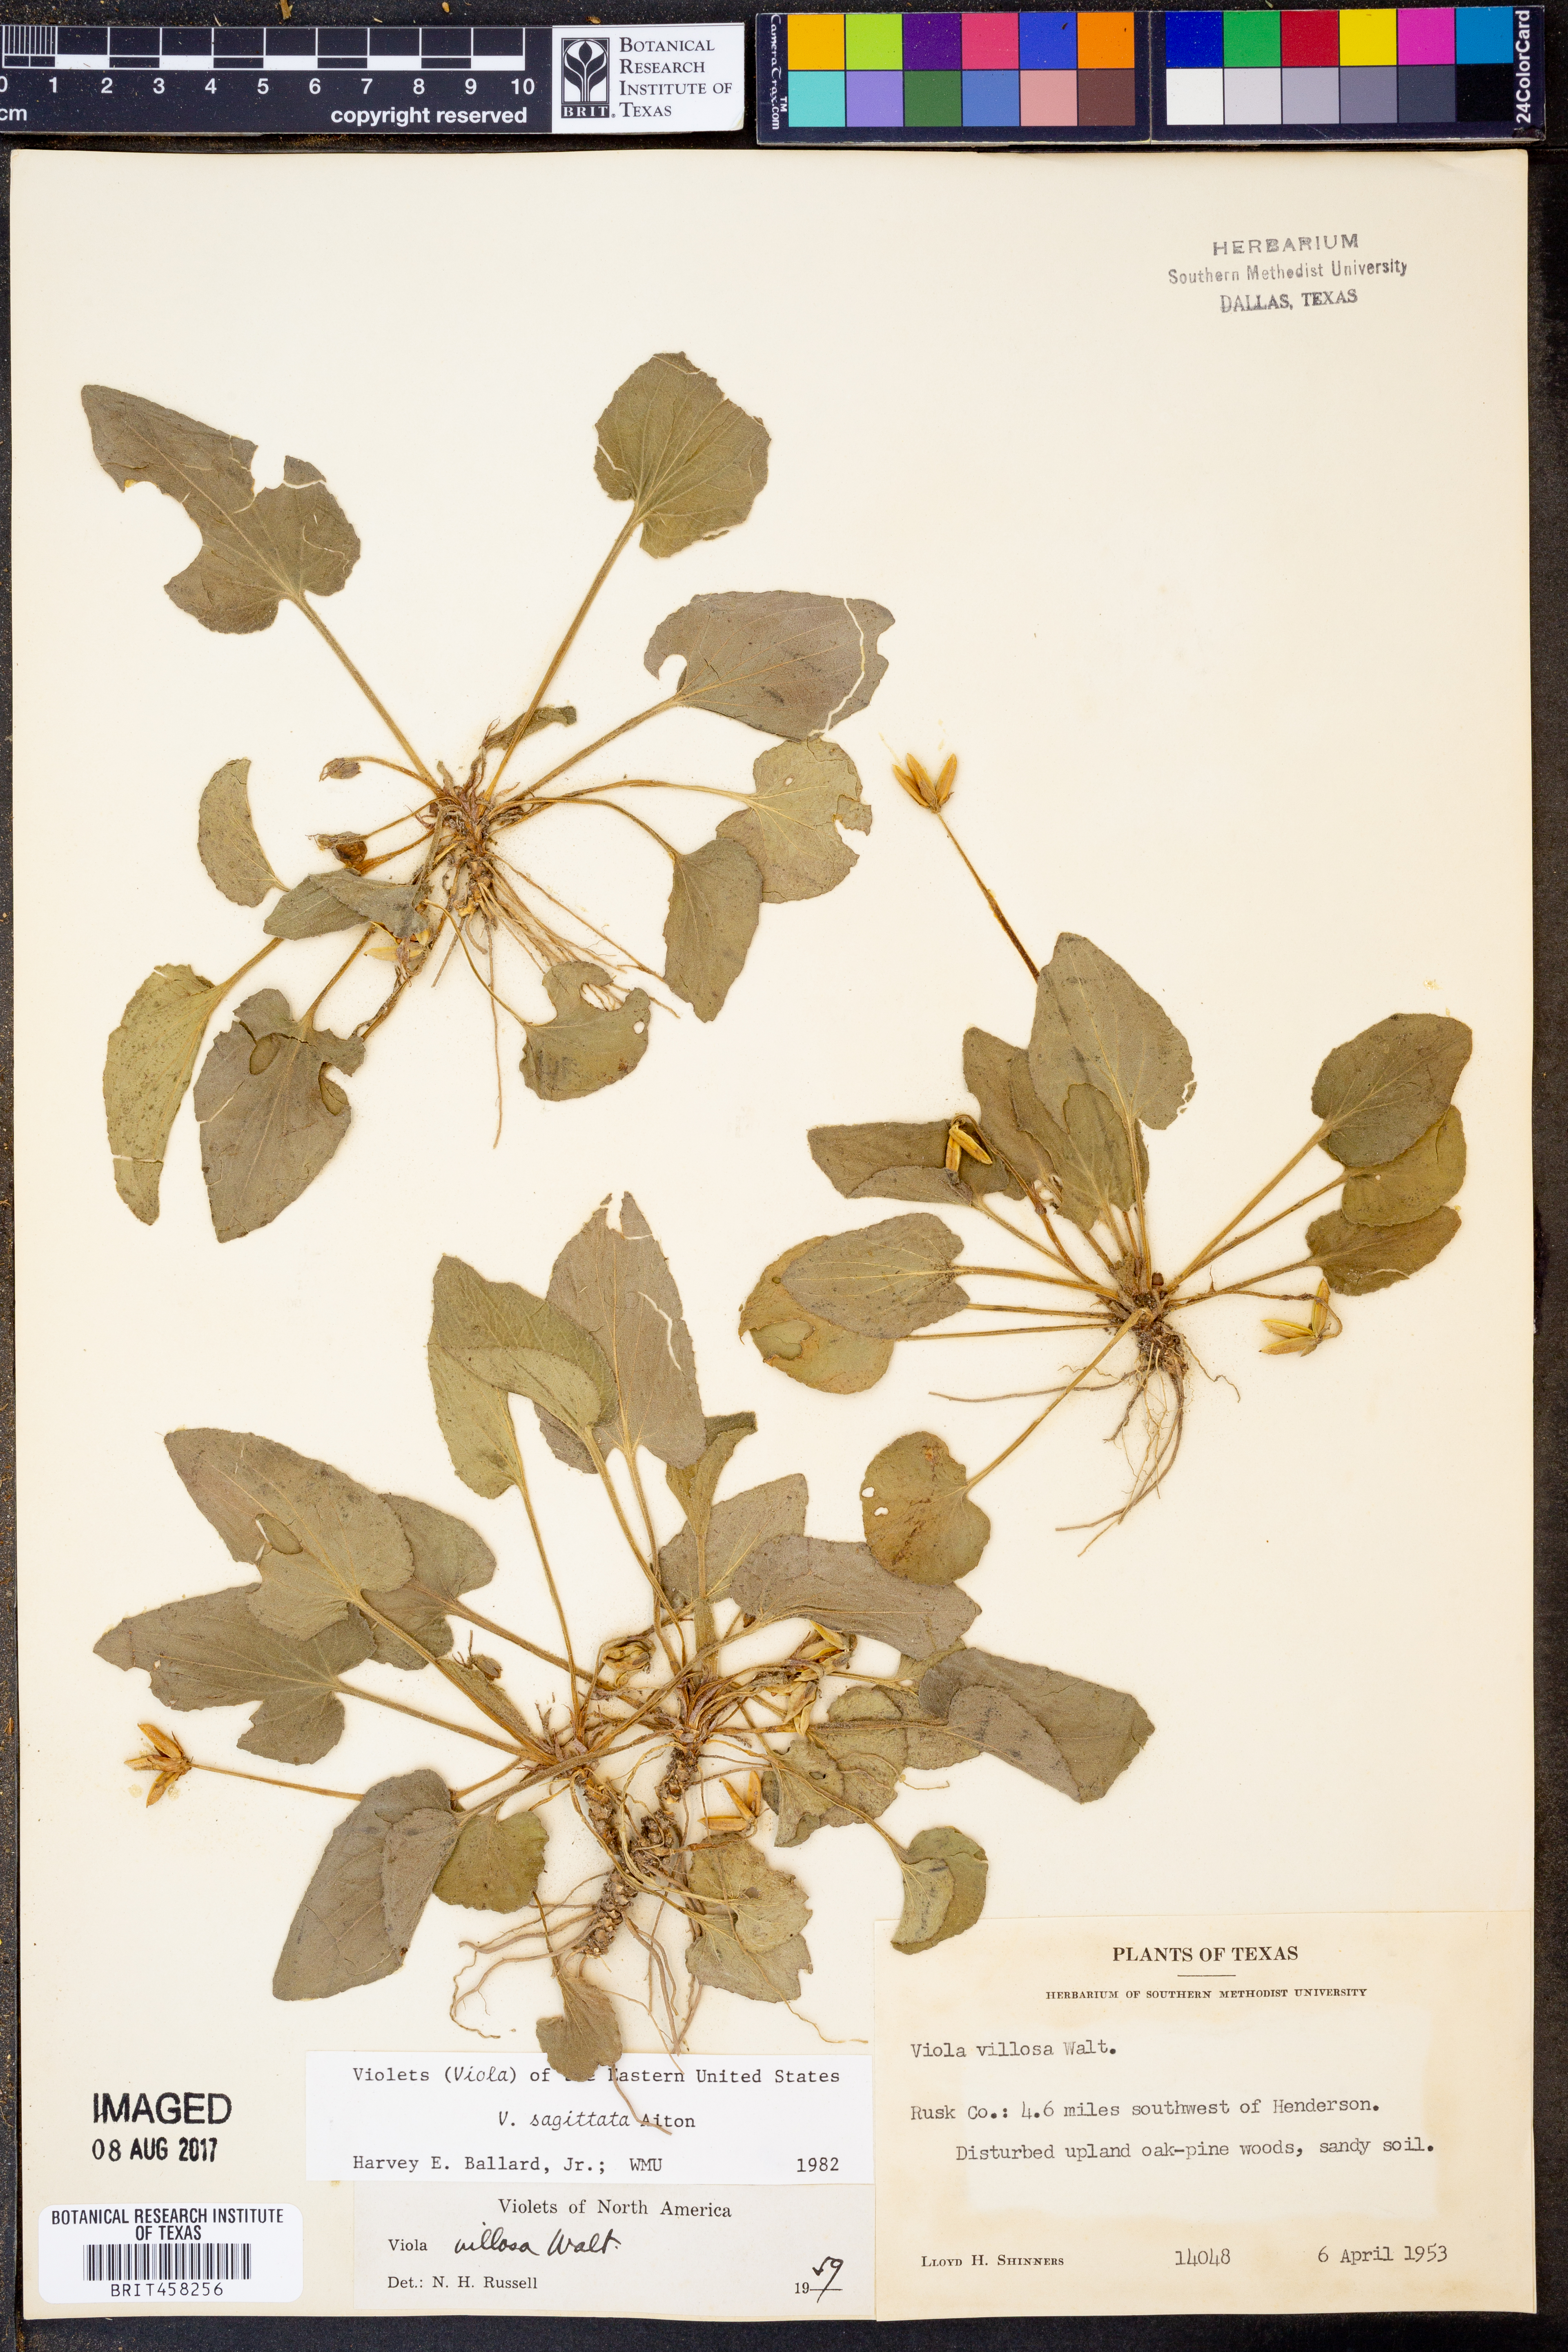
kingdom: Plantae
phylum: Tracheophyta
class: Magnoliopsida
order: Malpighiales
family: Violaceae
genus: Viola
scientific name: Viola sagittata
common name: Arrowhead violet
